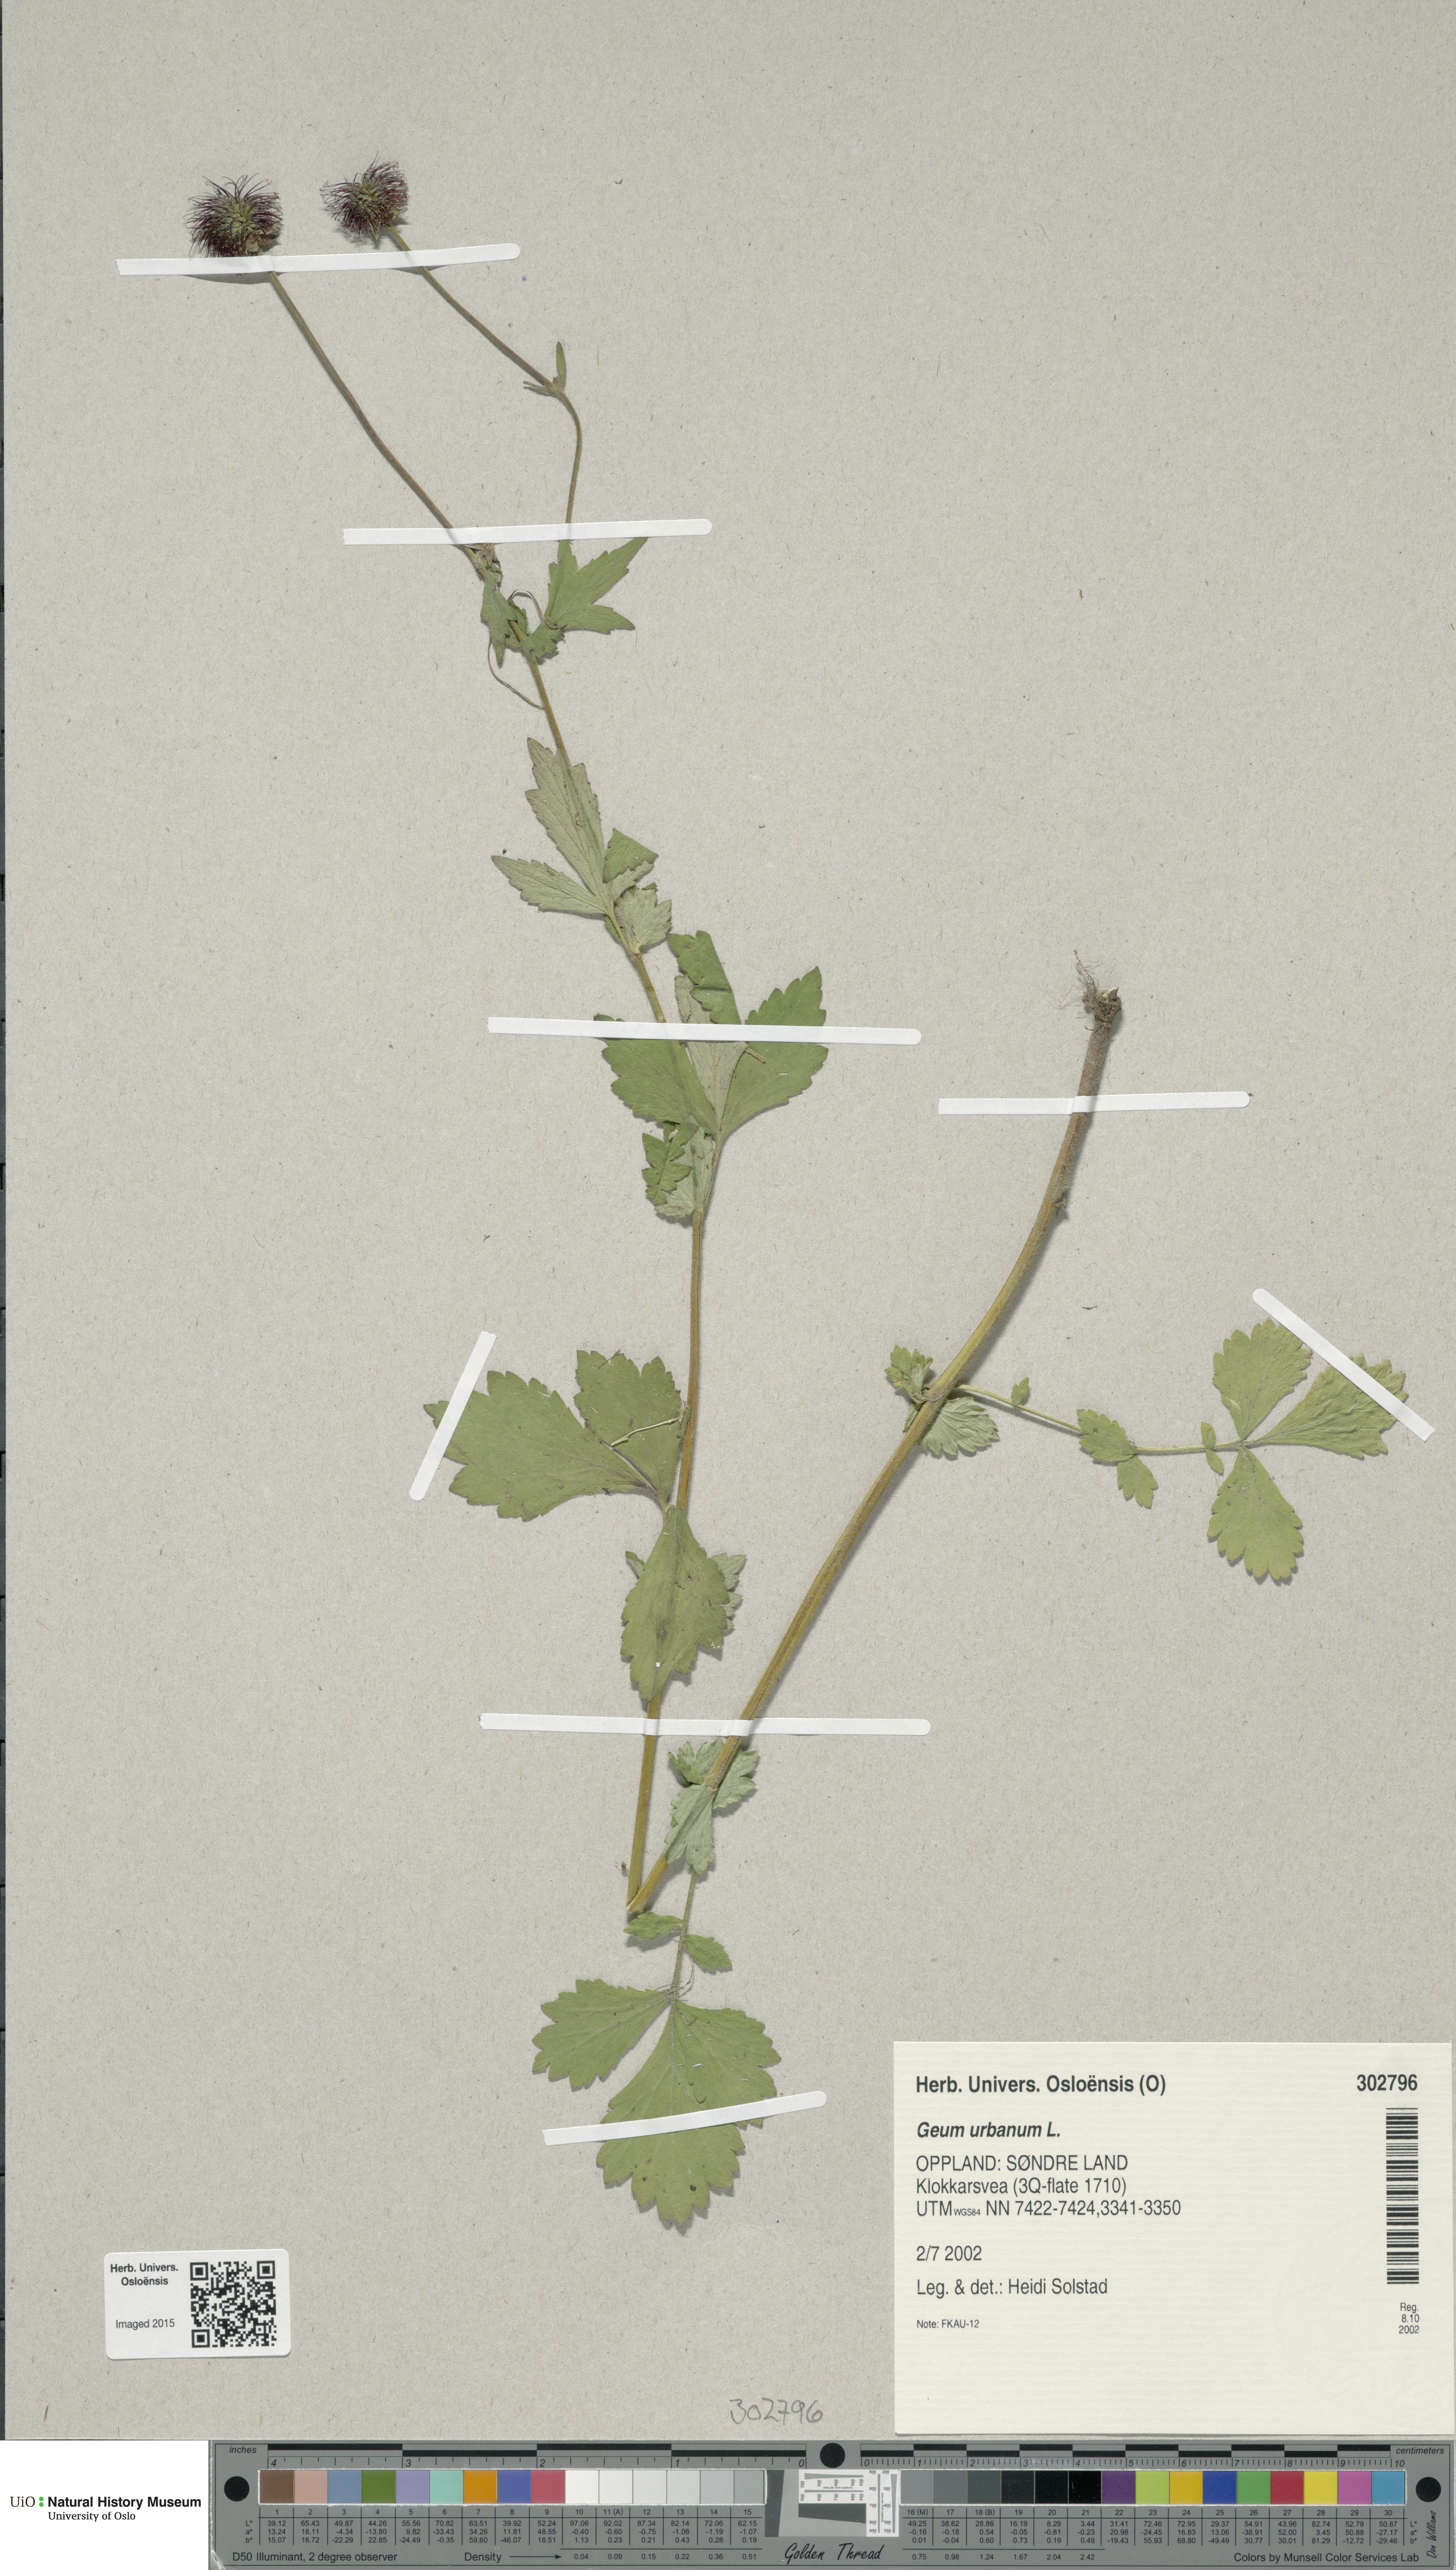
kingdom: Plantae
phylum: Tracheophyta
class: Magnoliopsida
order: Rosales
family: Rosaceae
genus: Geum
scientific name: Geum urbanum
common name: Wood avens
